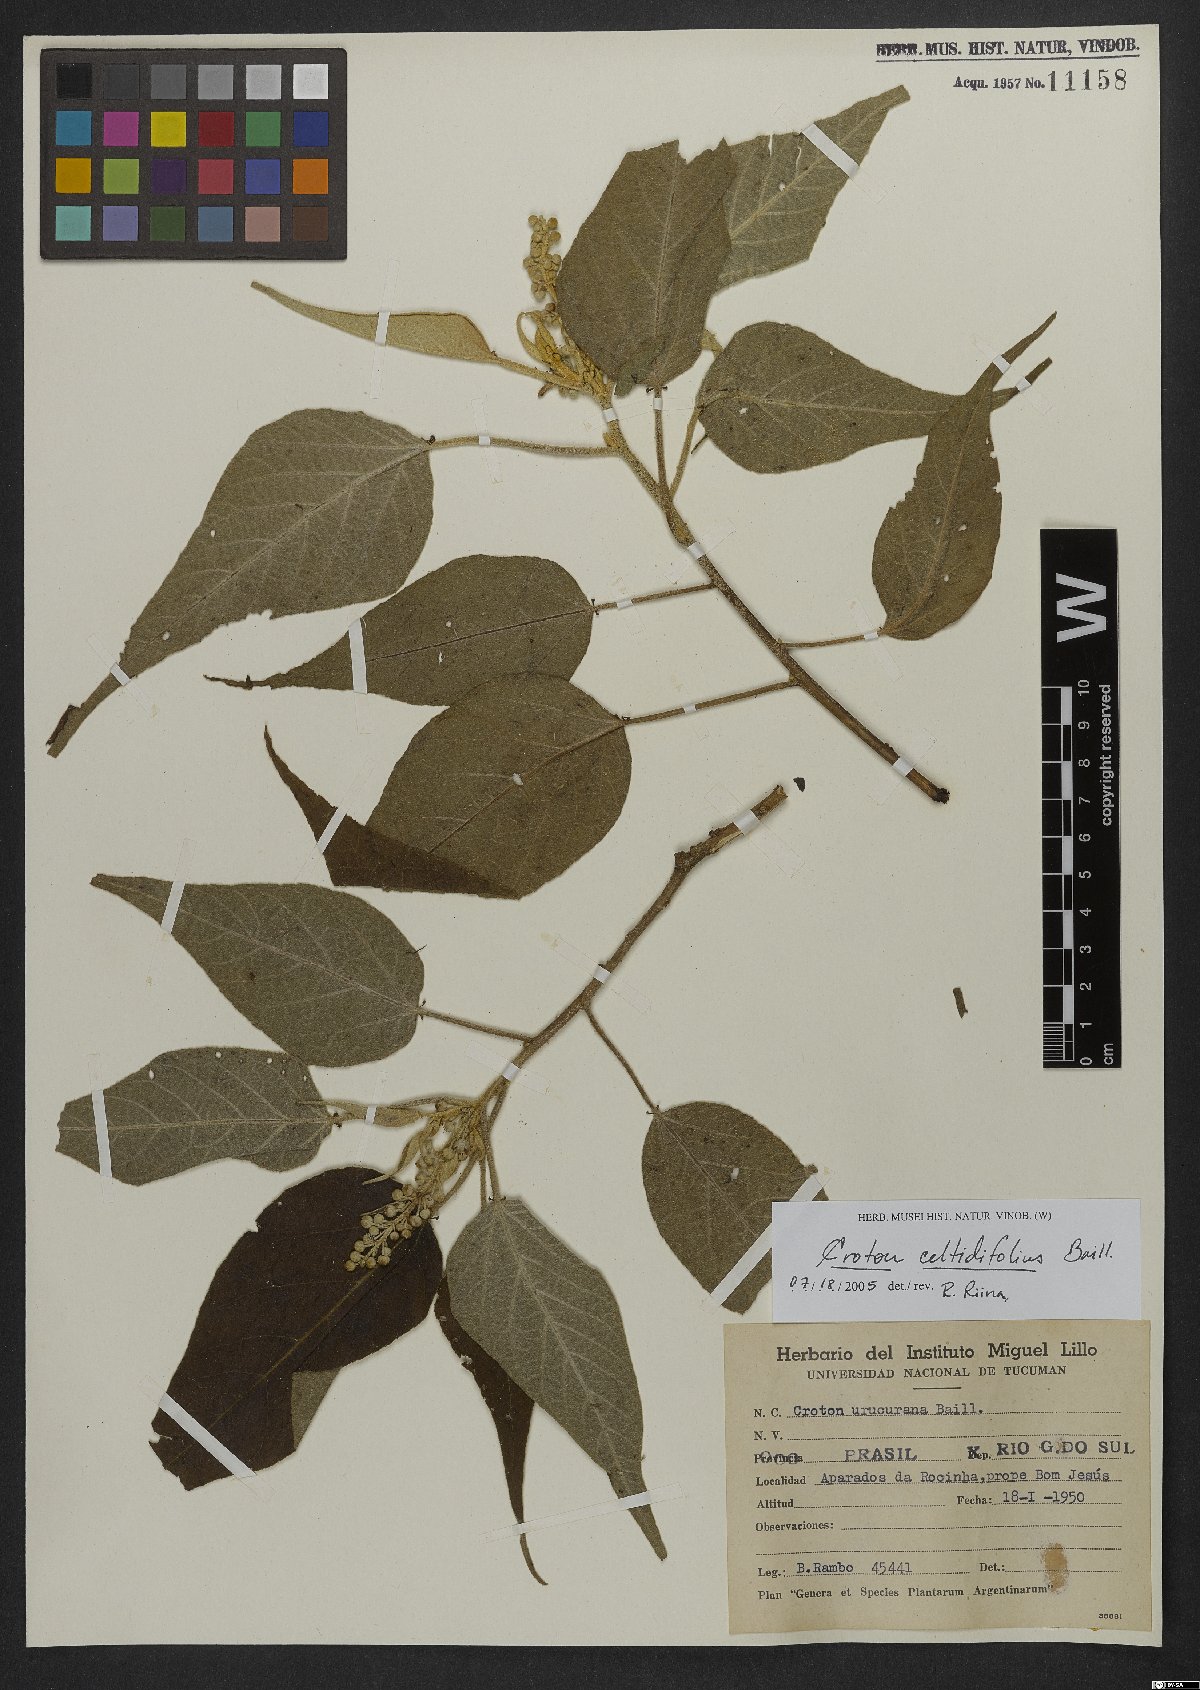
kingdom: Plantae
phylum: Tracheophyta
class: Magnoliopsida
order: Malpighiales
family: Euphorbiaceae
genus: Croton
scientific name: Croton celtidifolius
